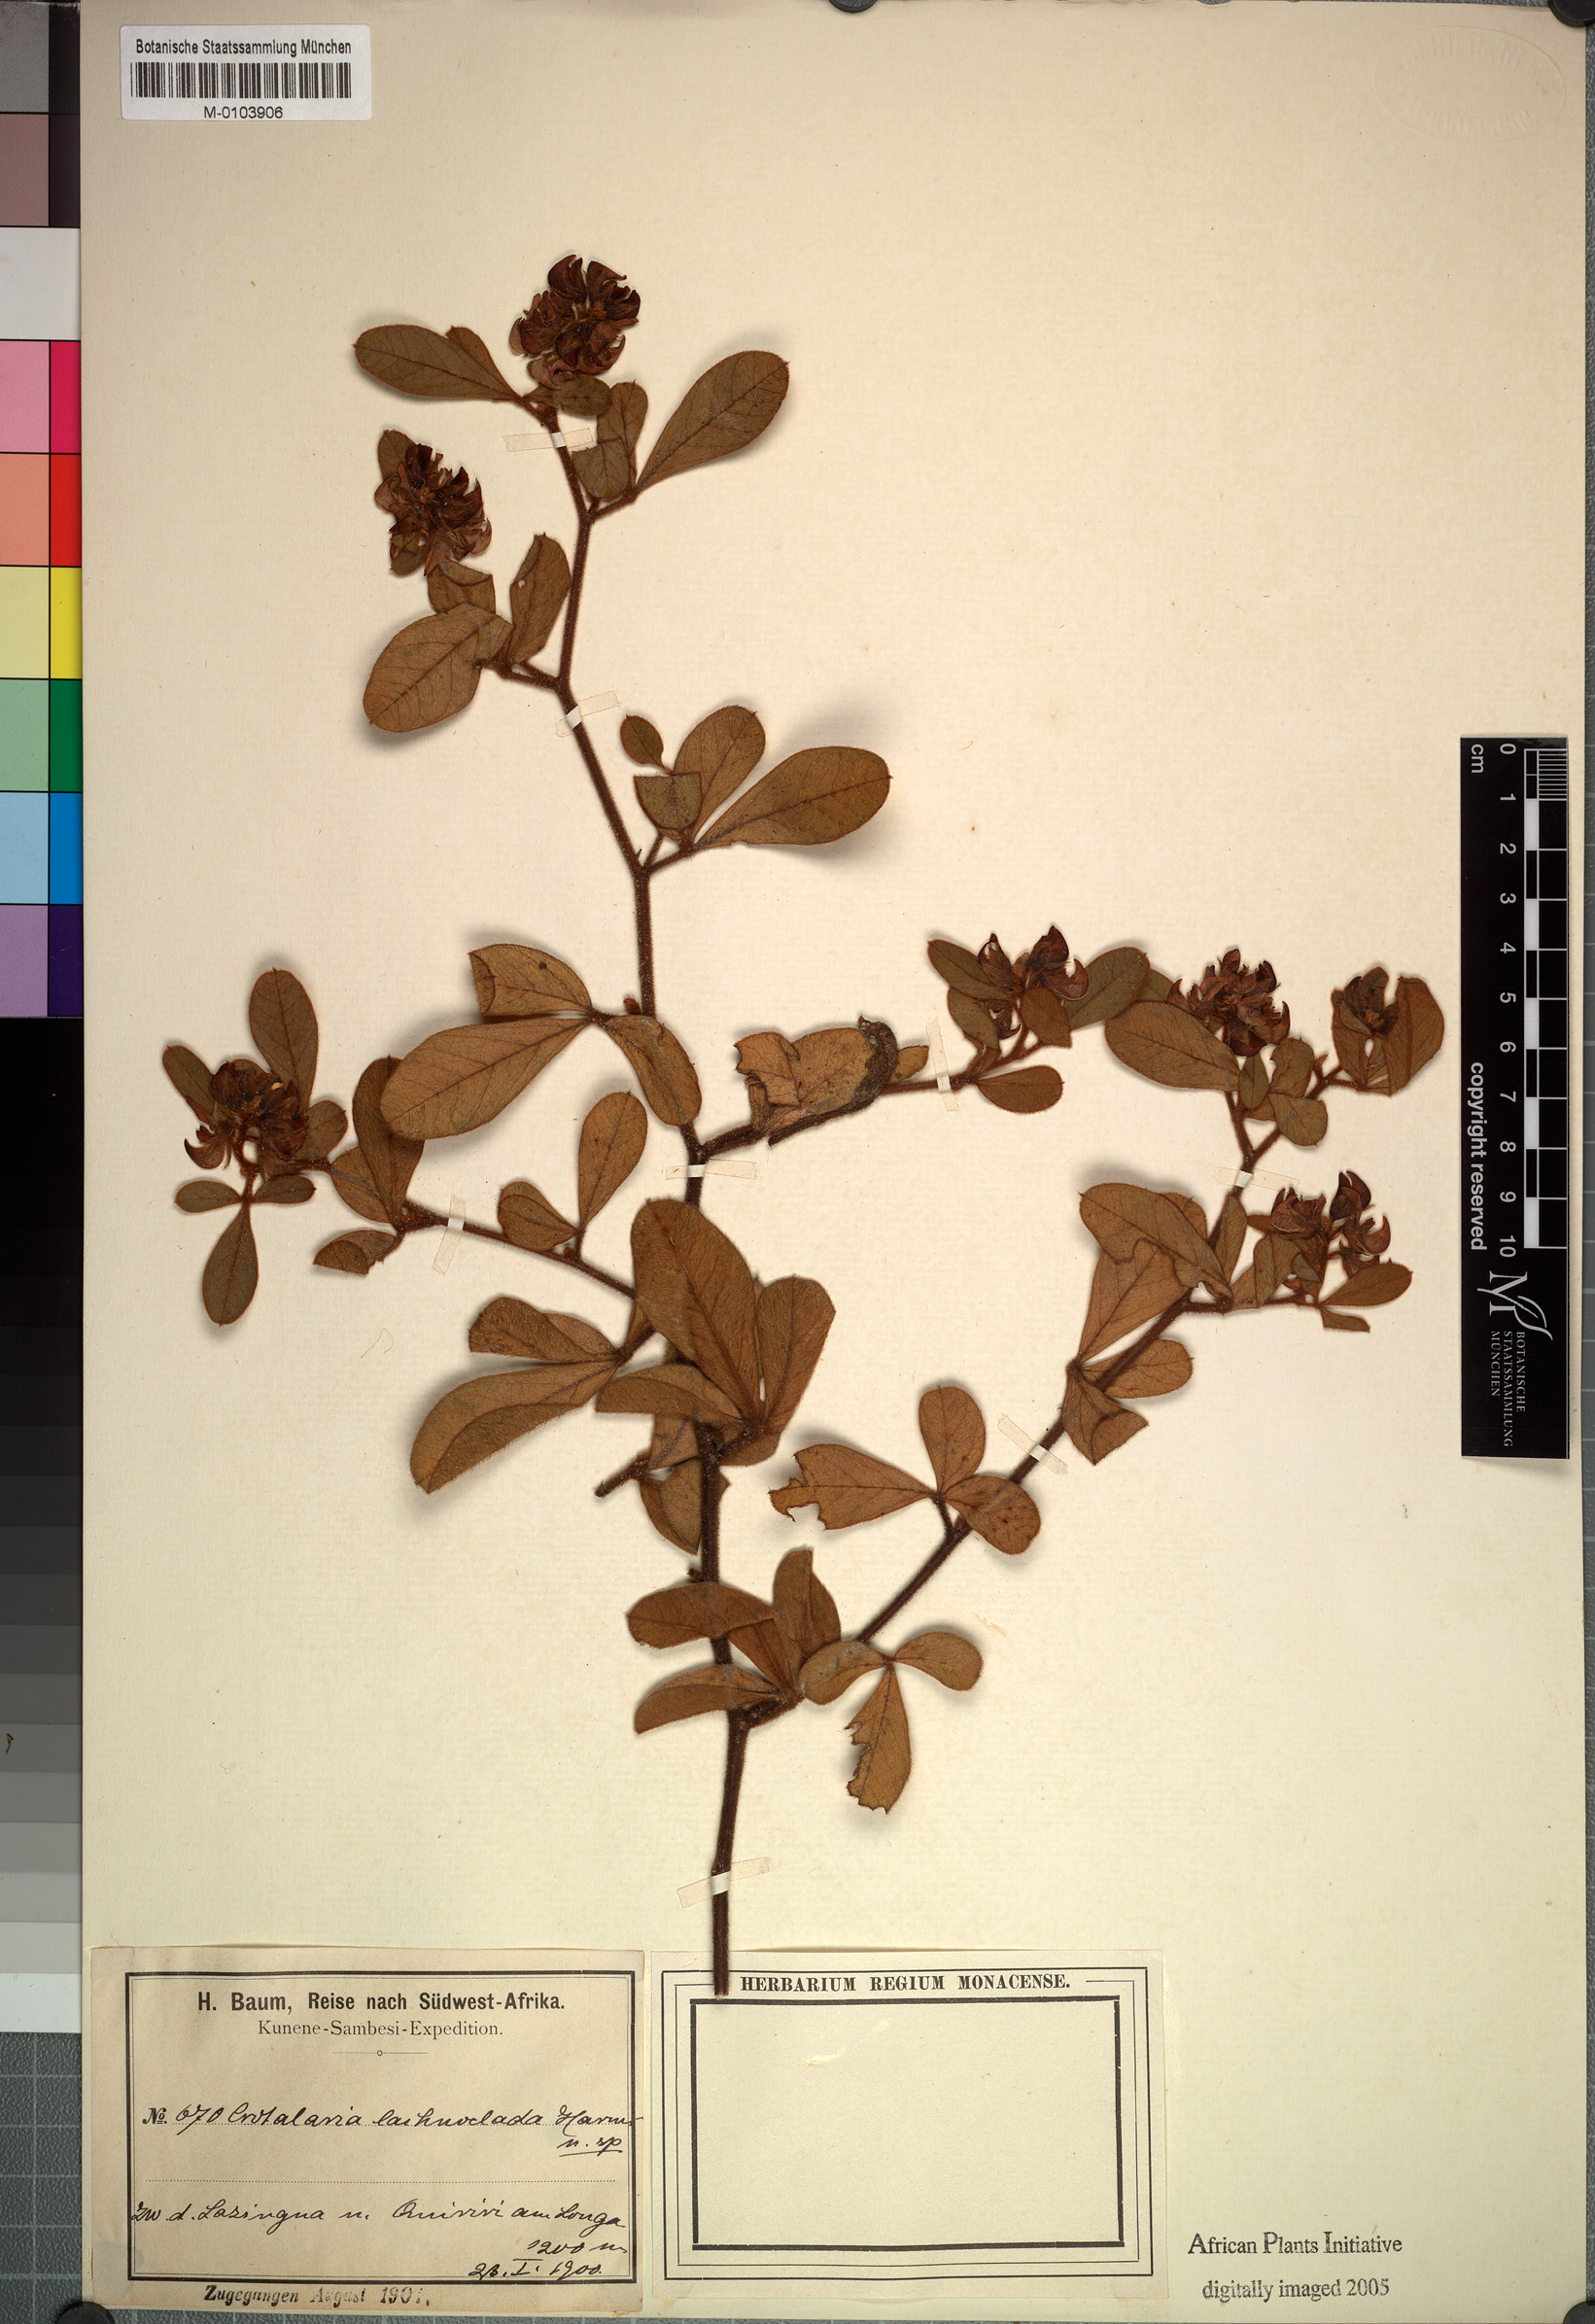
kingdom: Plantae
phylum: Tracheophyta
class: Magnoliopsida
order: Fabales
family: Fabaceae
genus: Crotalaria
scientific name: Crotalaria densicephala
